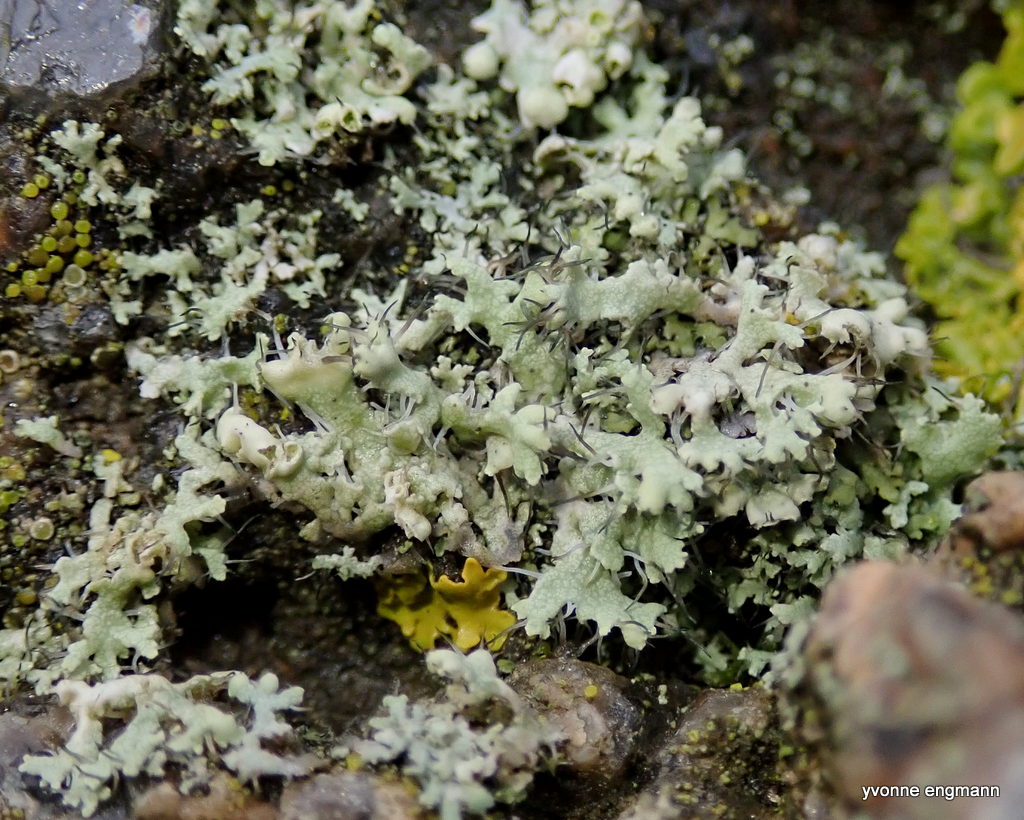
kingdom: Fungi
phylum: Ascomycota
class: Lecanoromycetes
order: Caliciales
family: Physciaceae
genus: Physcia
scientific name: Physcia tenella
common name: spæd rosetlav
